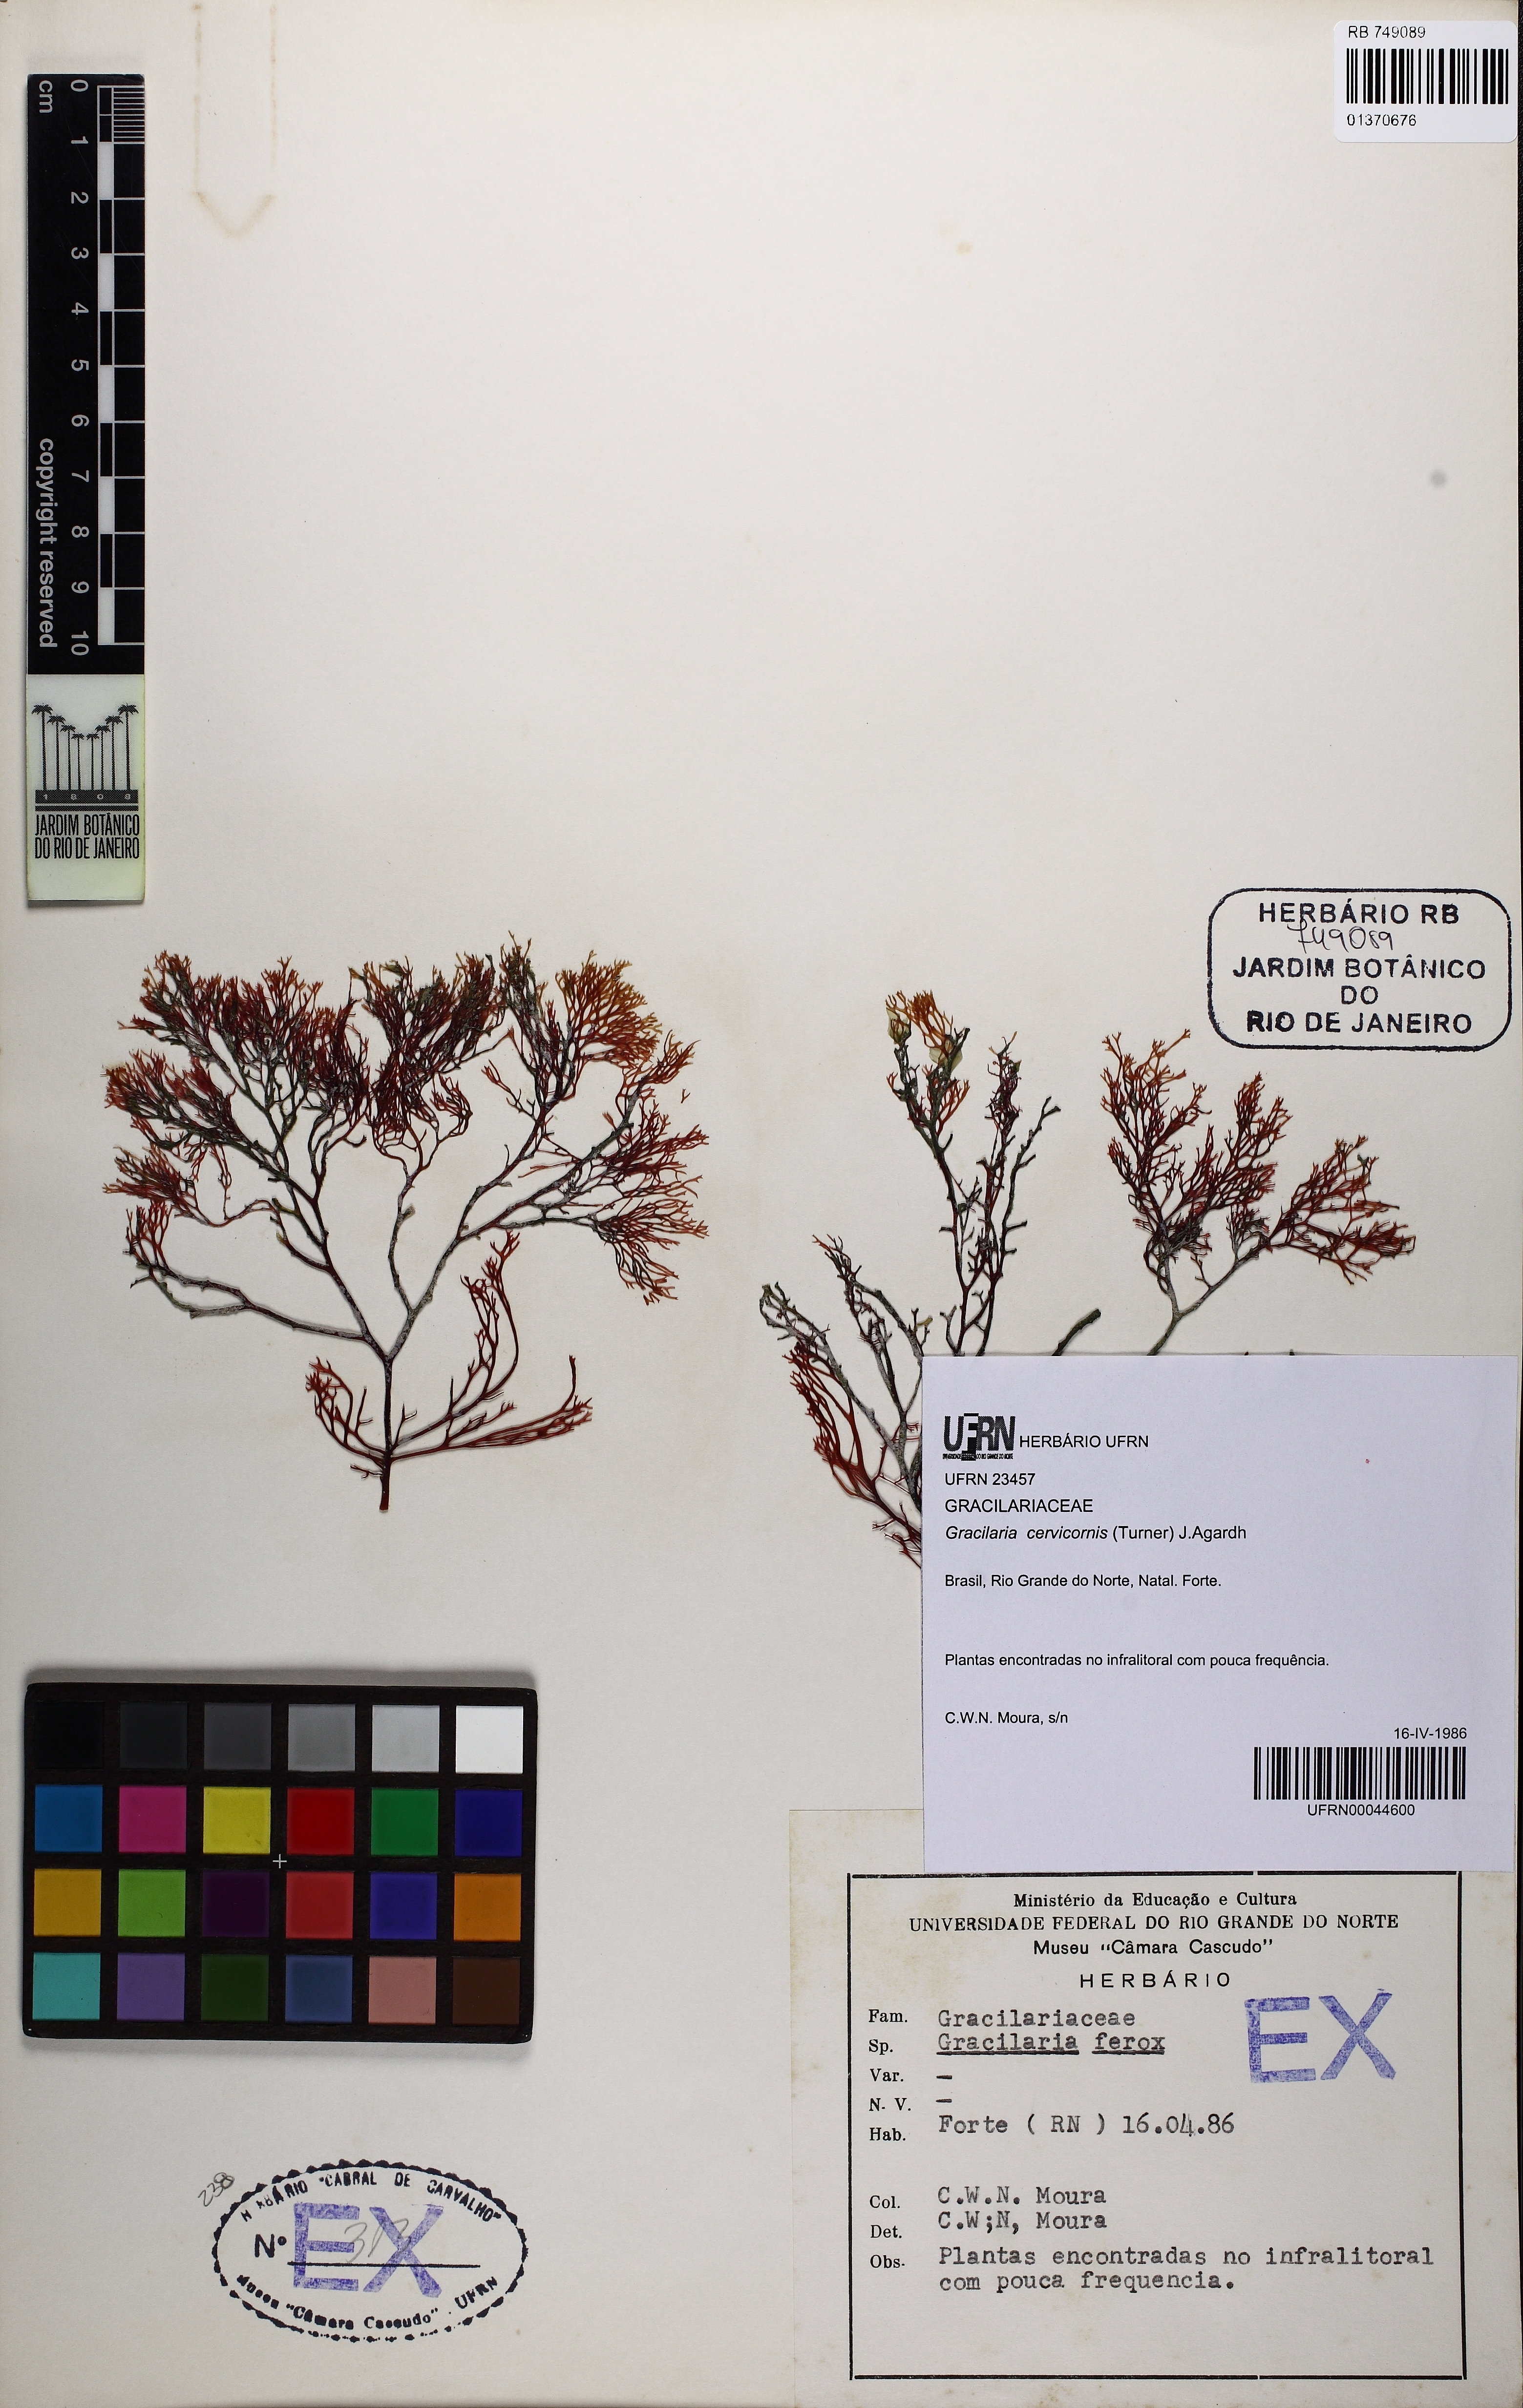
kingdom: Plantae
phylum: Rhodophyta
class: Florideophyceae
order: Gracilariales
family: Gracilariaceae
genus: Gracilaria
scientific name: Gracilaria cervicornis
